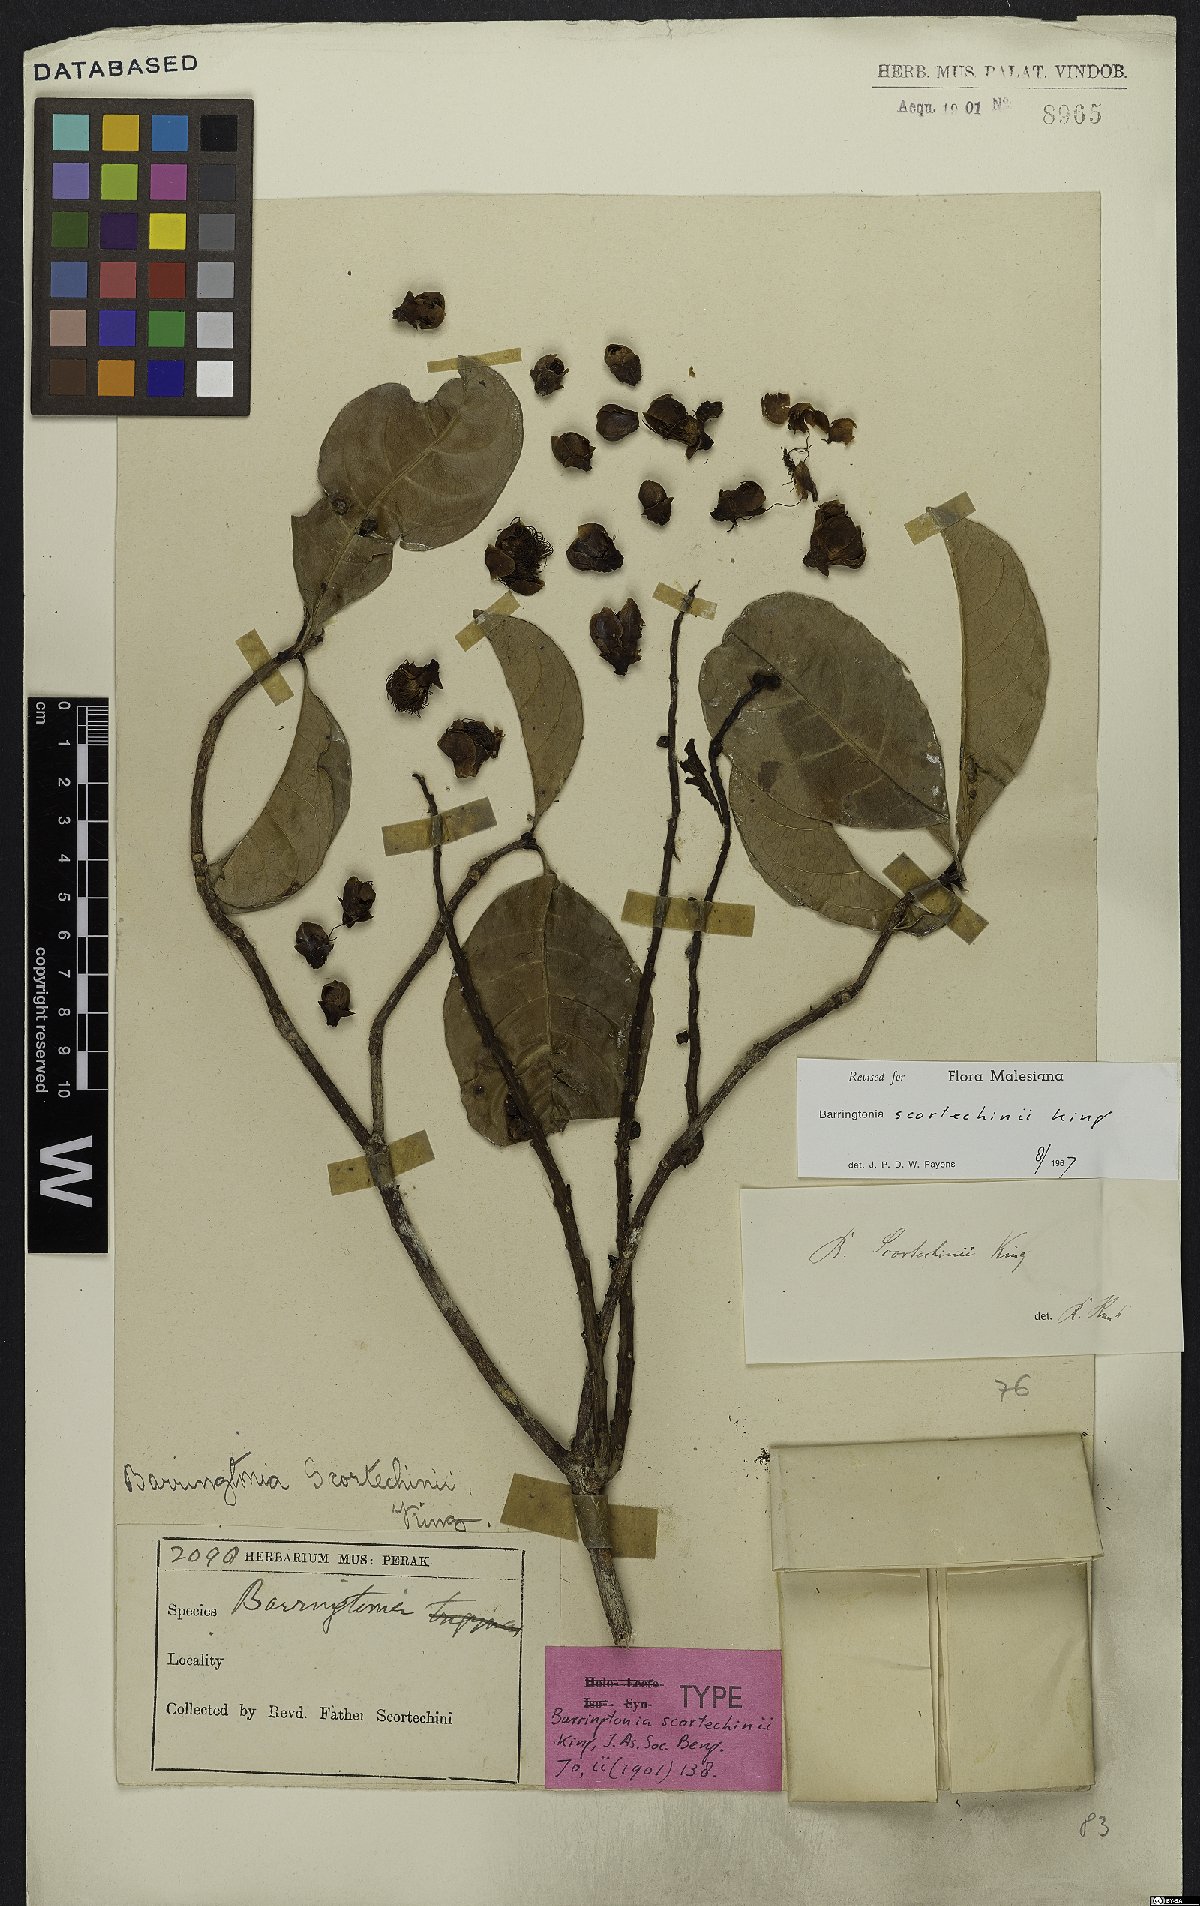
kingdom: Plantae
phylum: Tracheophyta
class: Magnoliopsida
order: Ericales
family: Lecythidaceae
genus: Barringtonia
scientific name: Barringtonia scortechinii
